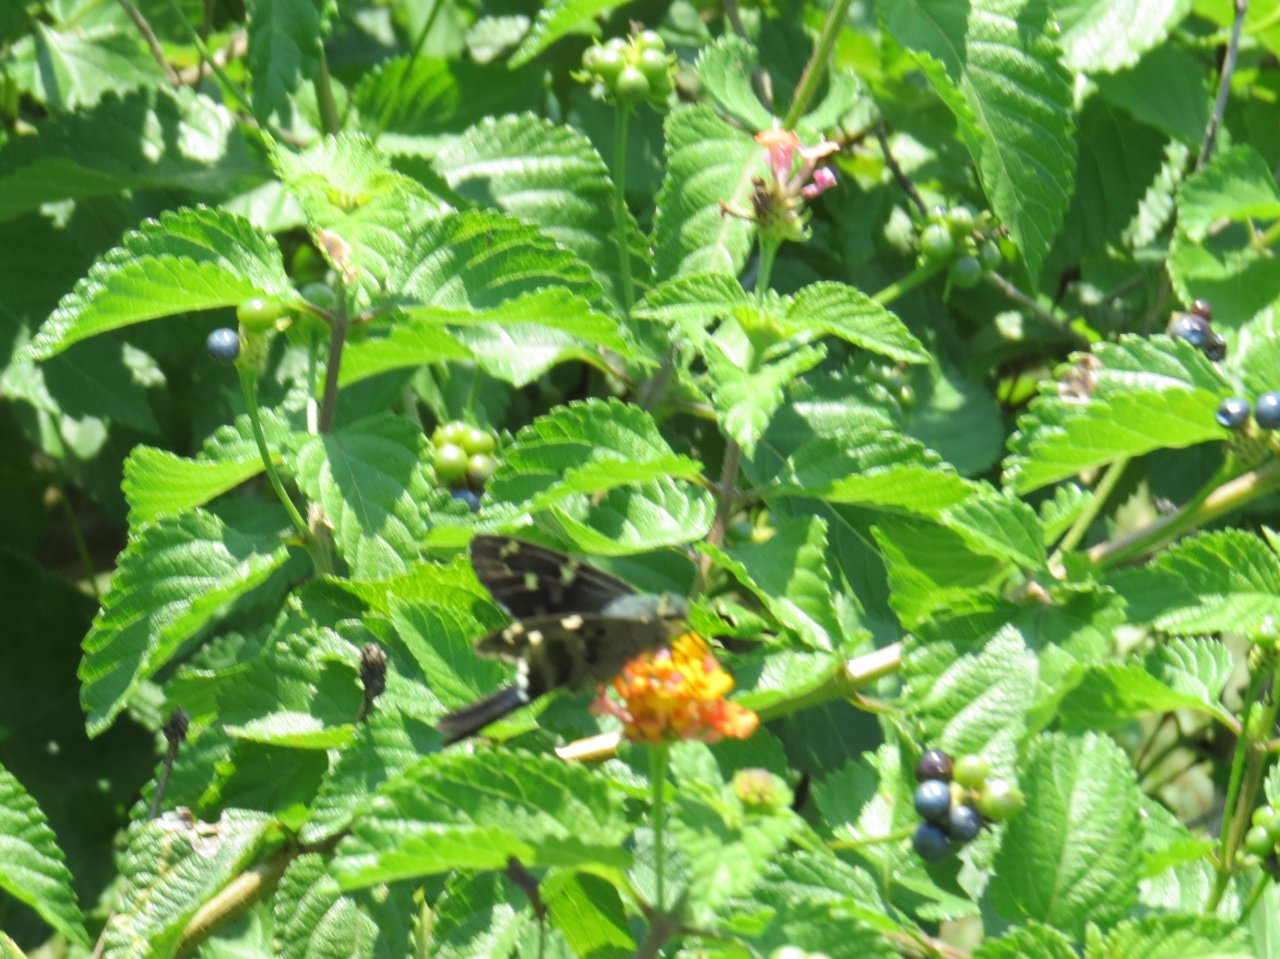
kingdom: Animalia
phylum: Arthropoda
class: Insecta
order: Lepidoptera
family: Hesperiidae
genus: Urbanus
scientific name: Urbanus proteus
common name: Long-tailed Skipper
